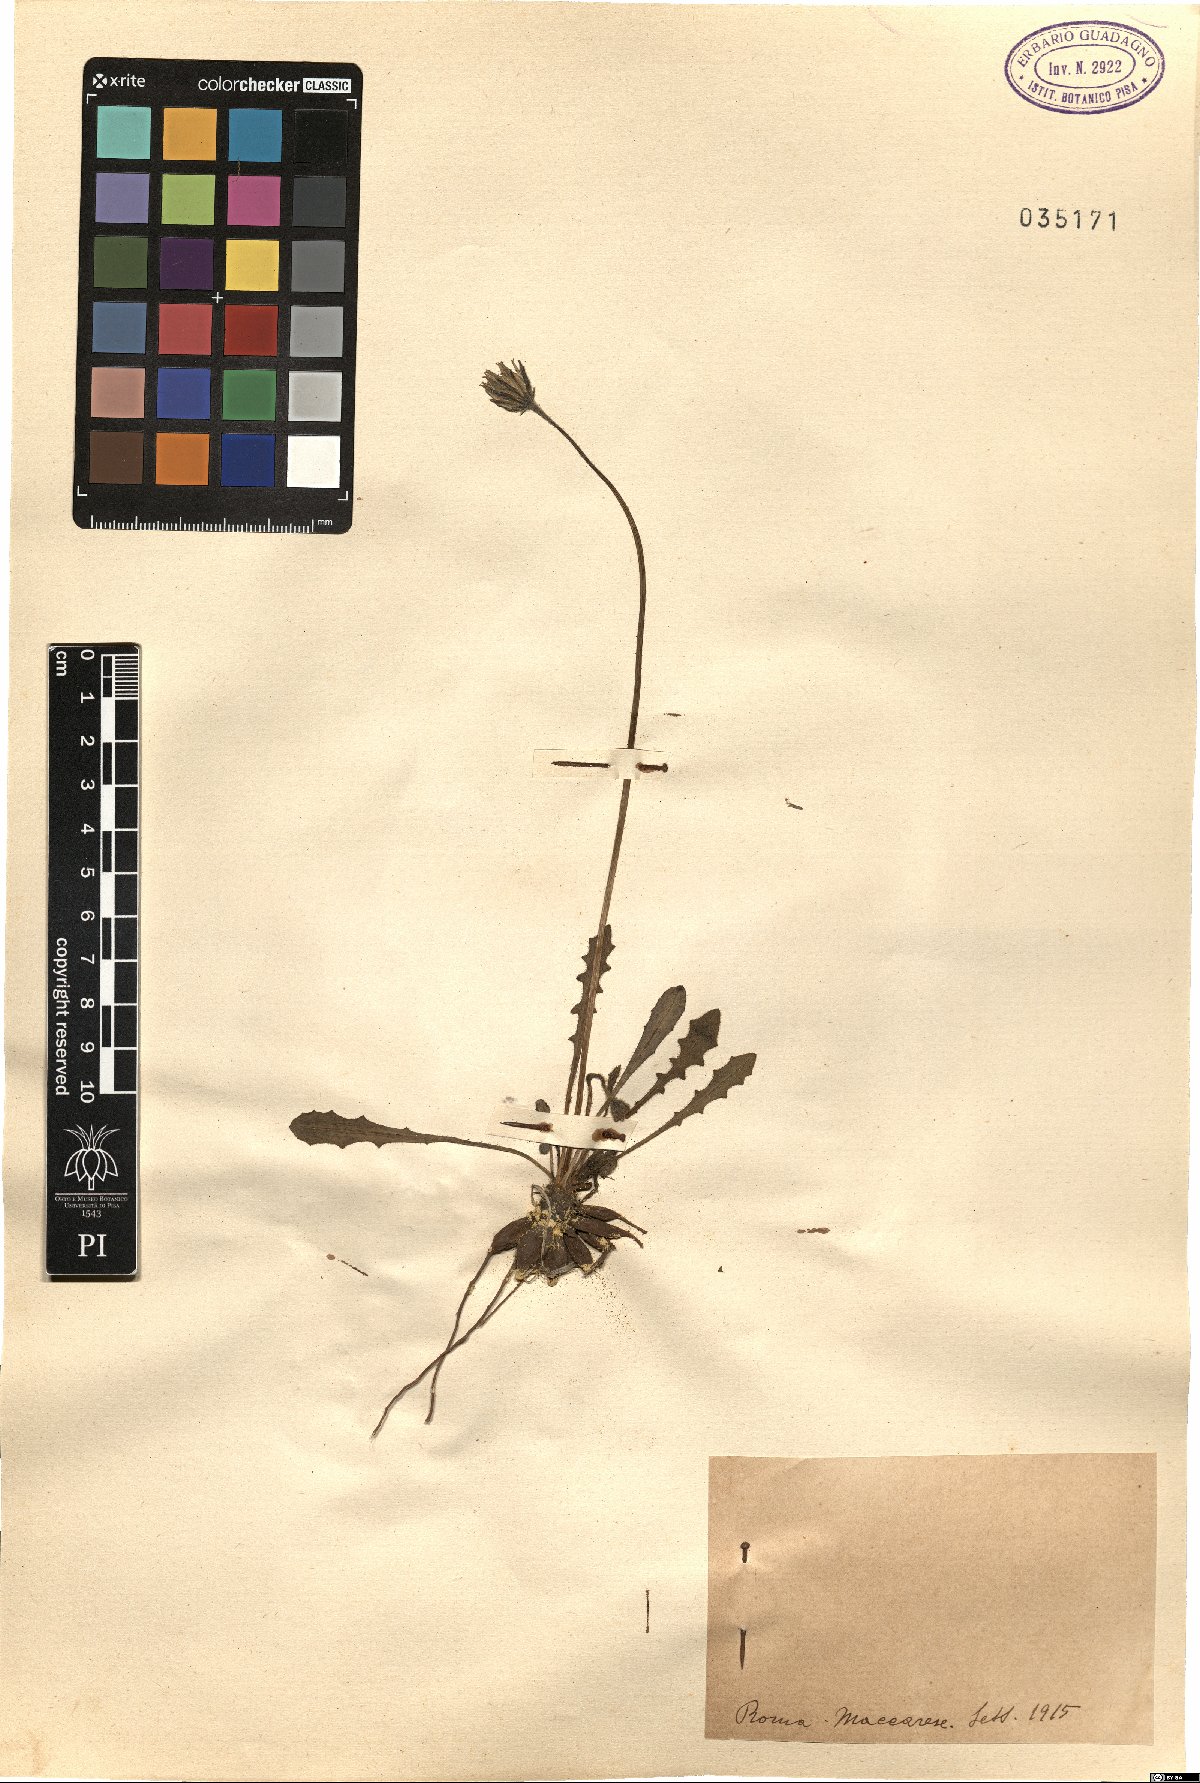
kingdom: Plantae
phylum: Tracheophyta
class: Magnoliopsida
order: Asterales
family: Asteraceae
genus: Leontodon
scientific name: Leontodon
